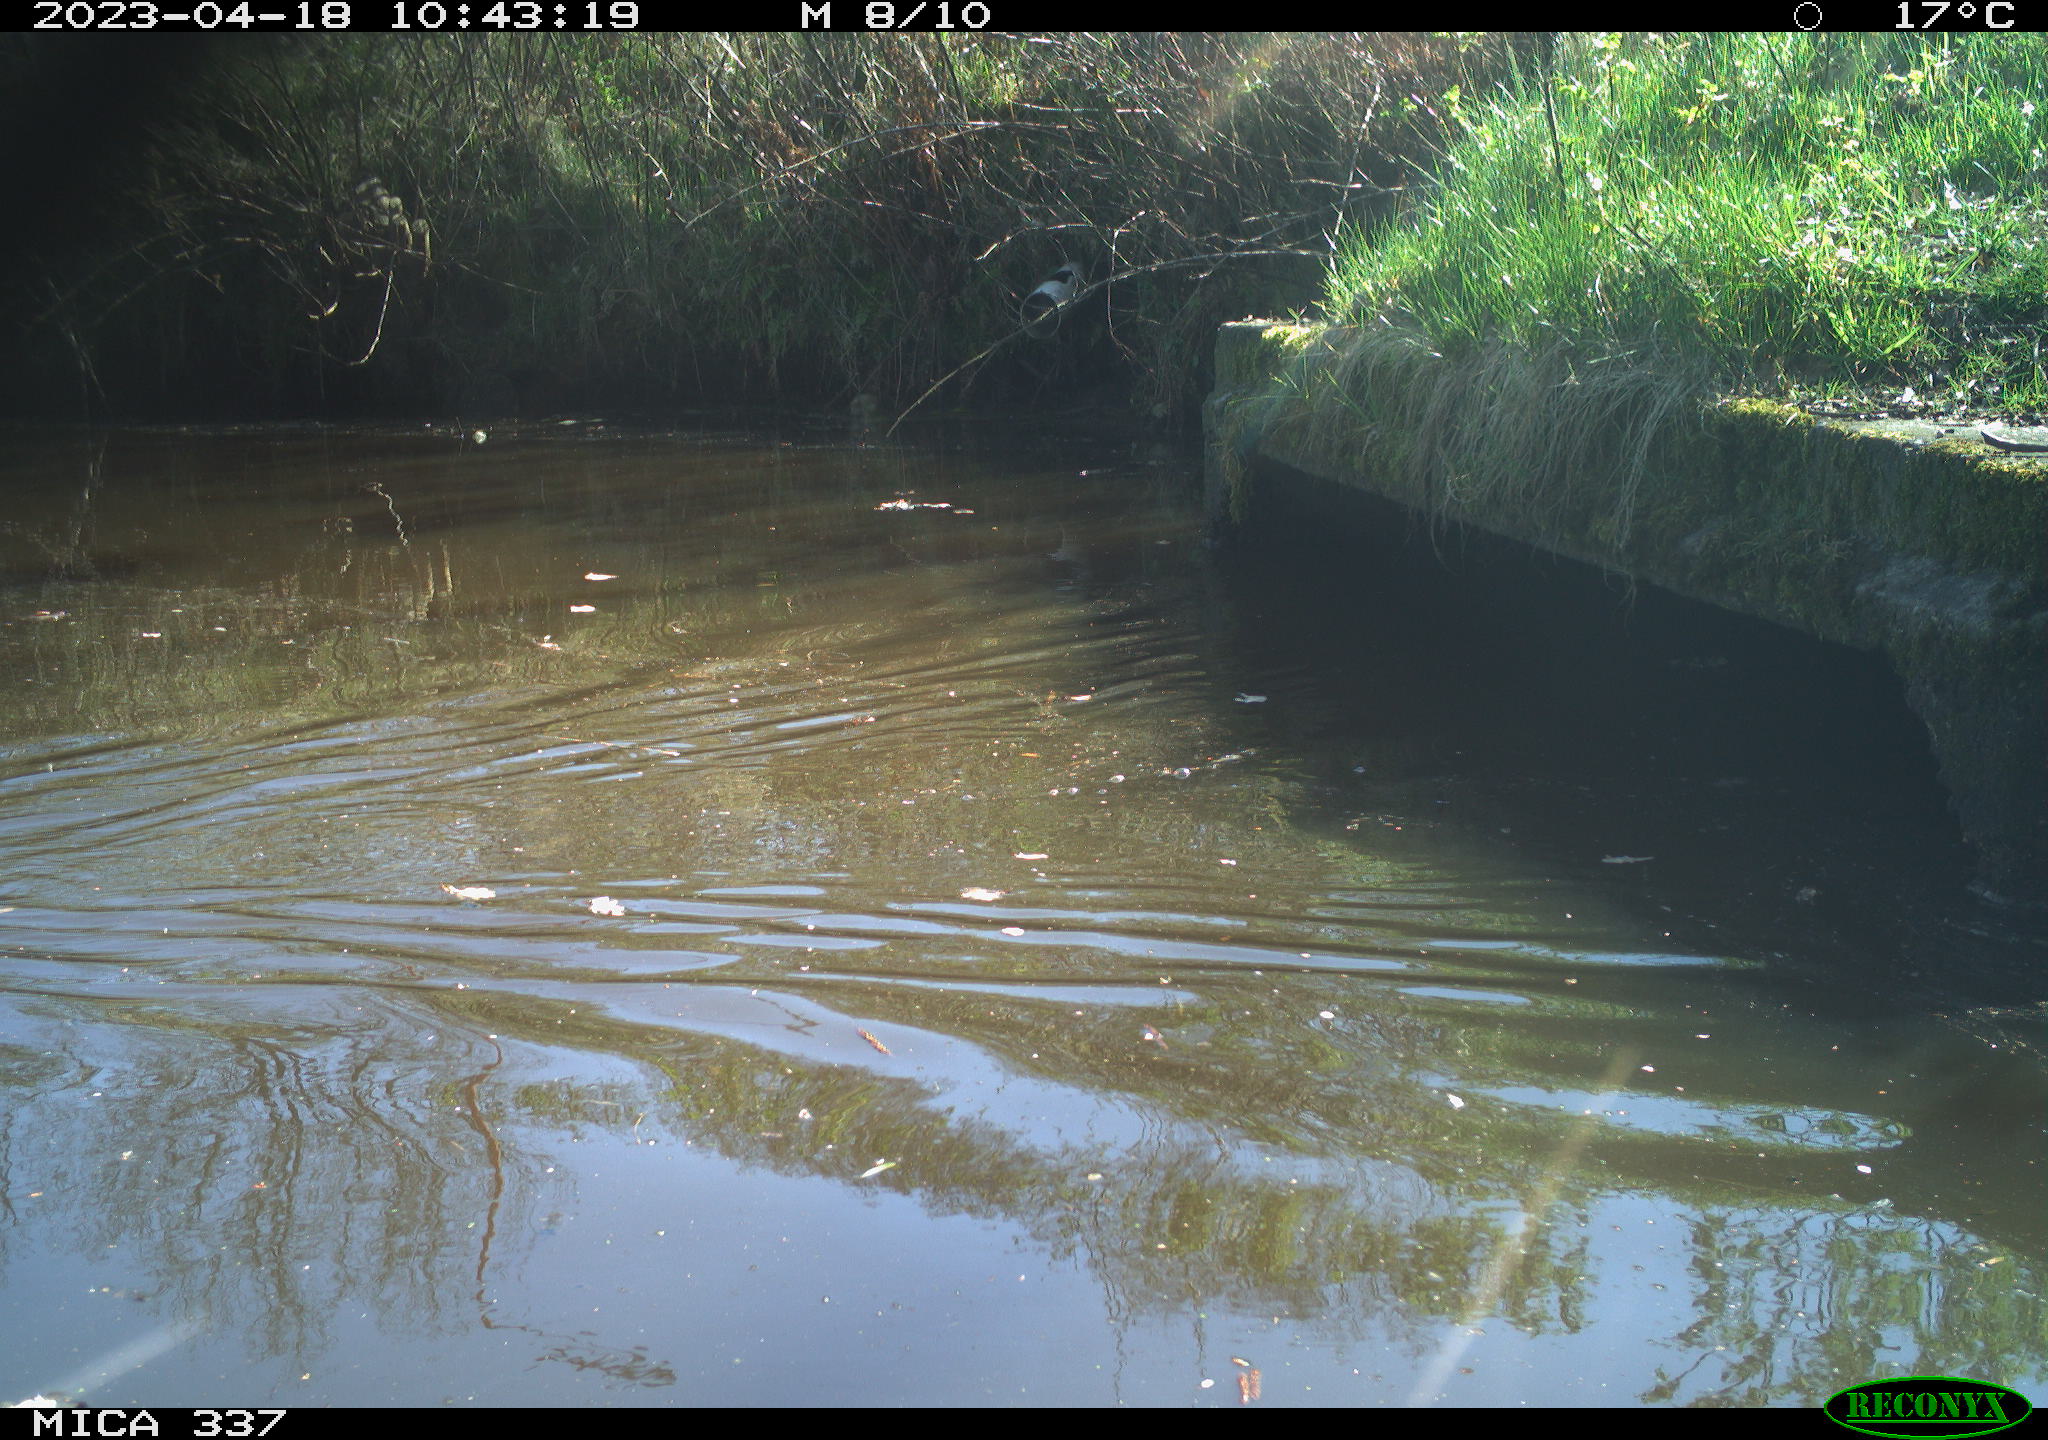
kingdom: Animalia
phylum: Chordata
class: Aves
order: Anseriformes
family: Anatidae
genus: Anas
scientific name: Anas platyrhynchos
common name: Mallard
